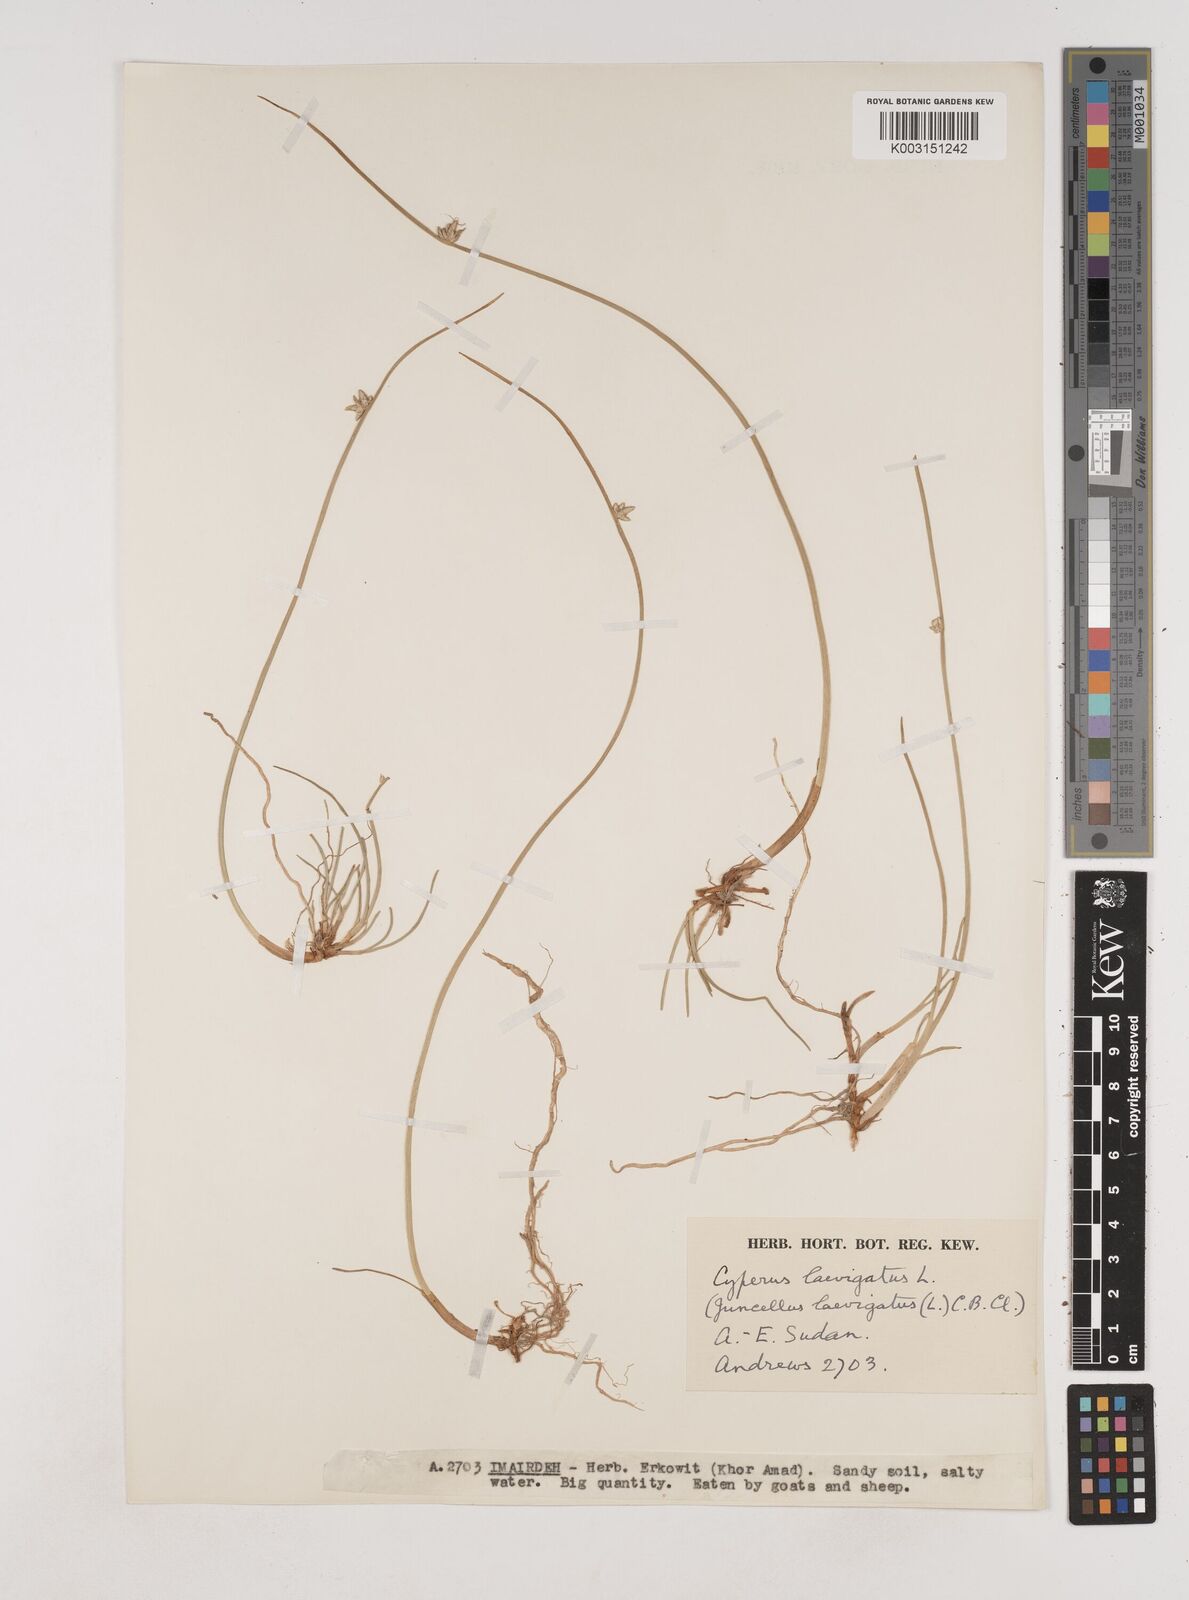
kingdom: Plantae
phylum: Tracheophyta
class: Liliopsida
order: Poales
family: Cyperaceae
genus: Cyperus
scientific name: Cyperus laevigatus
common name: Smooth flat sedge
